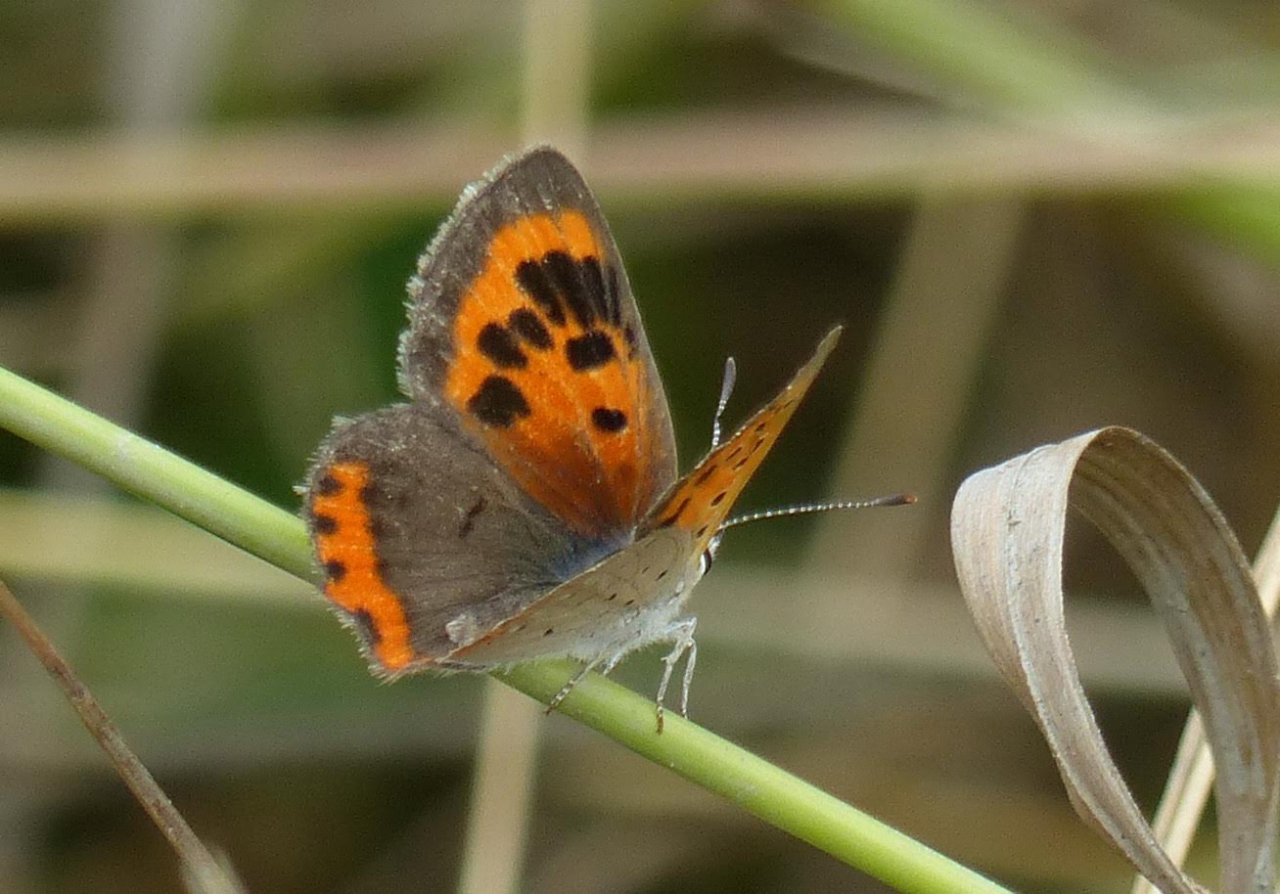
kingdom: Animalia
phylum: Arthropoda
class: Insecta
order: Lepidoptera
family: Lycaenidae
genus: Lycaena
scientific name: Lycaena phlaeas
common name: American Copper
